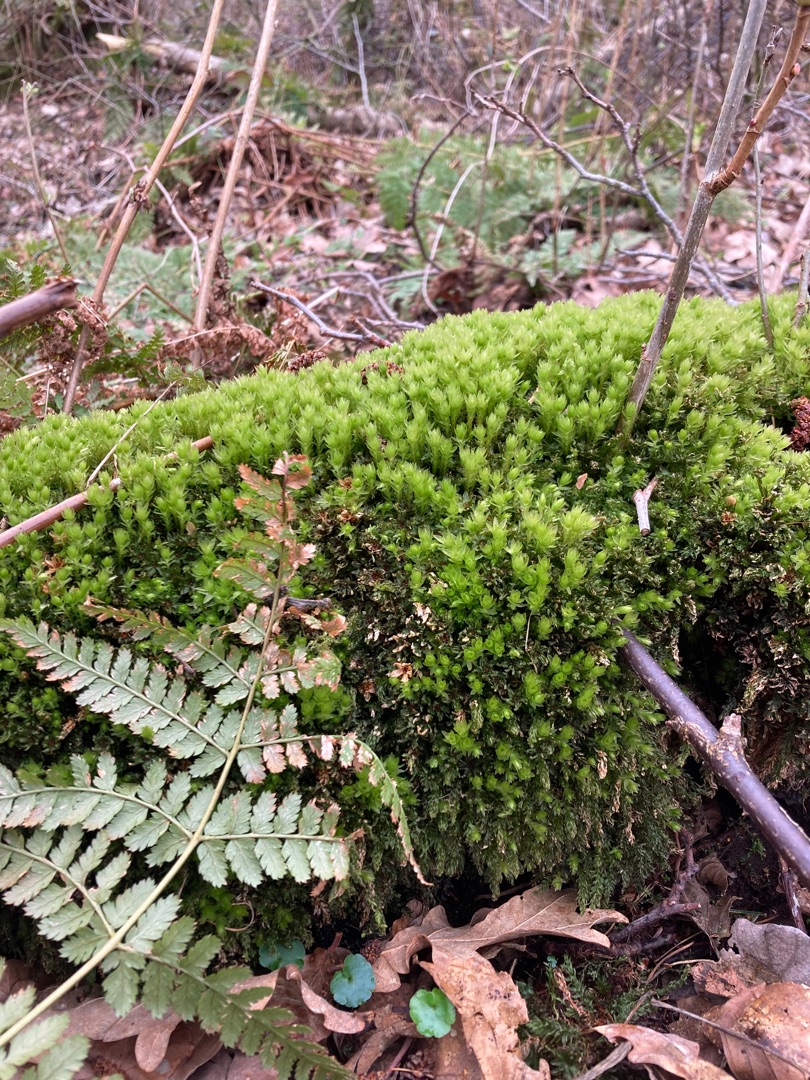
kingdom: Plantae
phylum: Bryophyta
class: Bryopsida
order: Bryales
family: Mniaceae
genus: Mnium
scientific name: Mnium hornum
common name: Brunfiltet stjernemos
